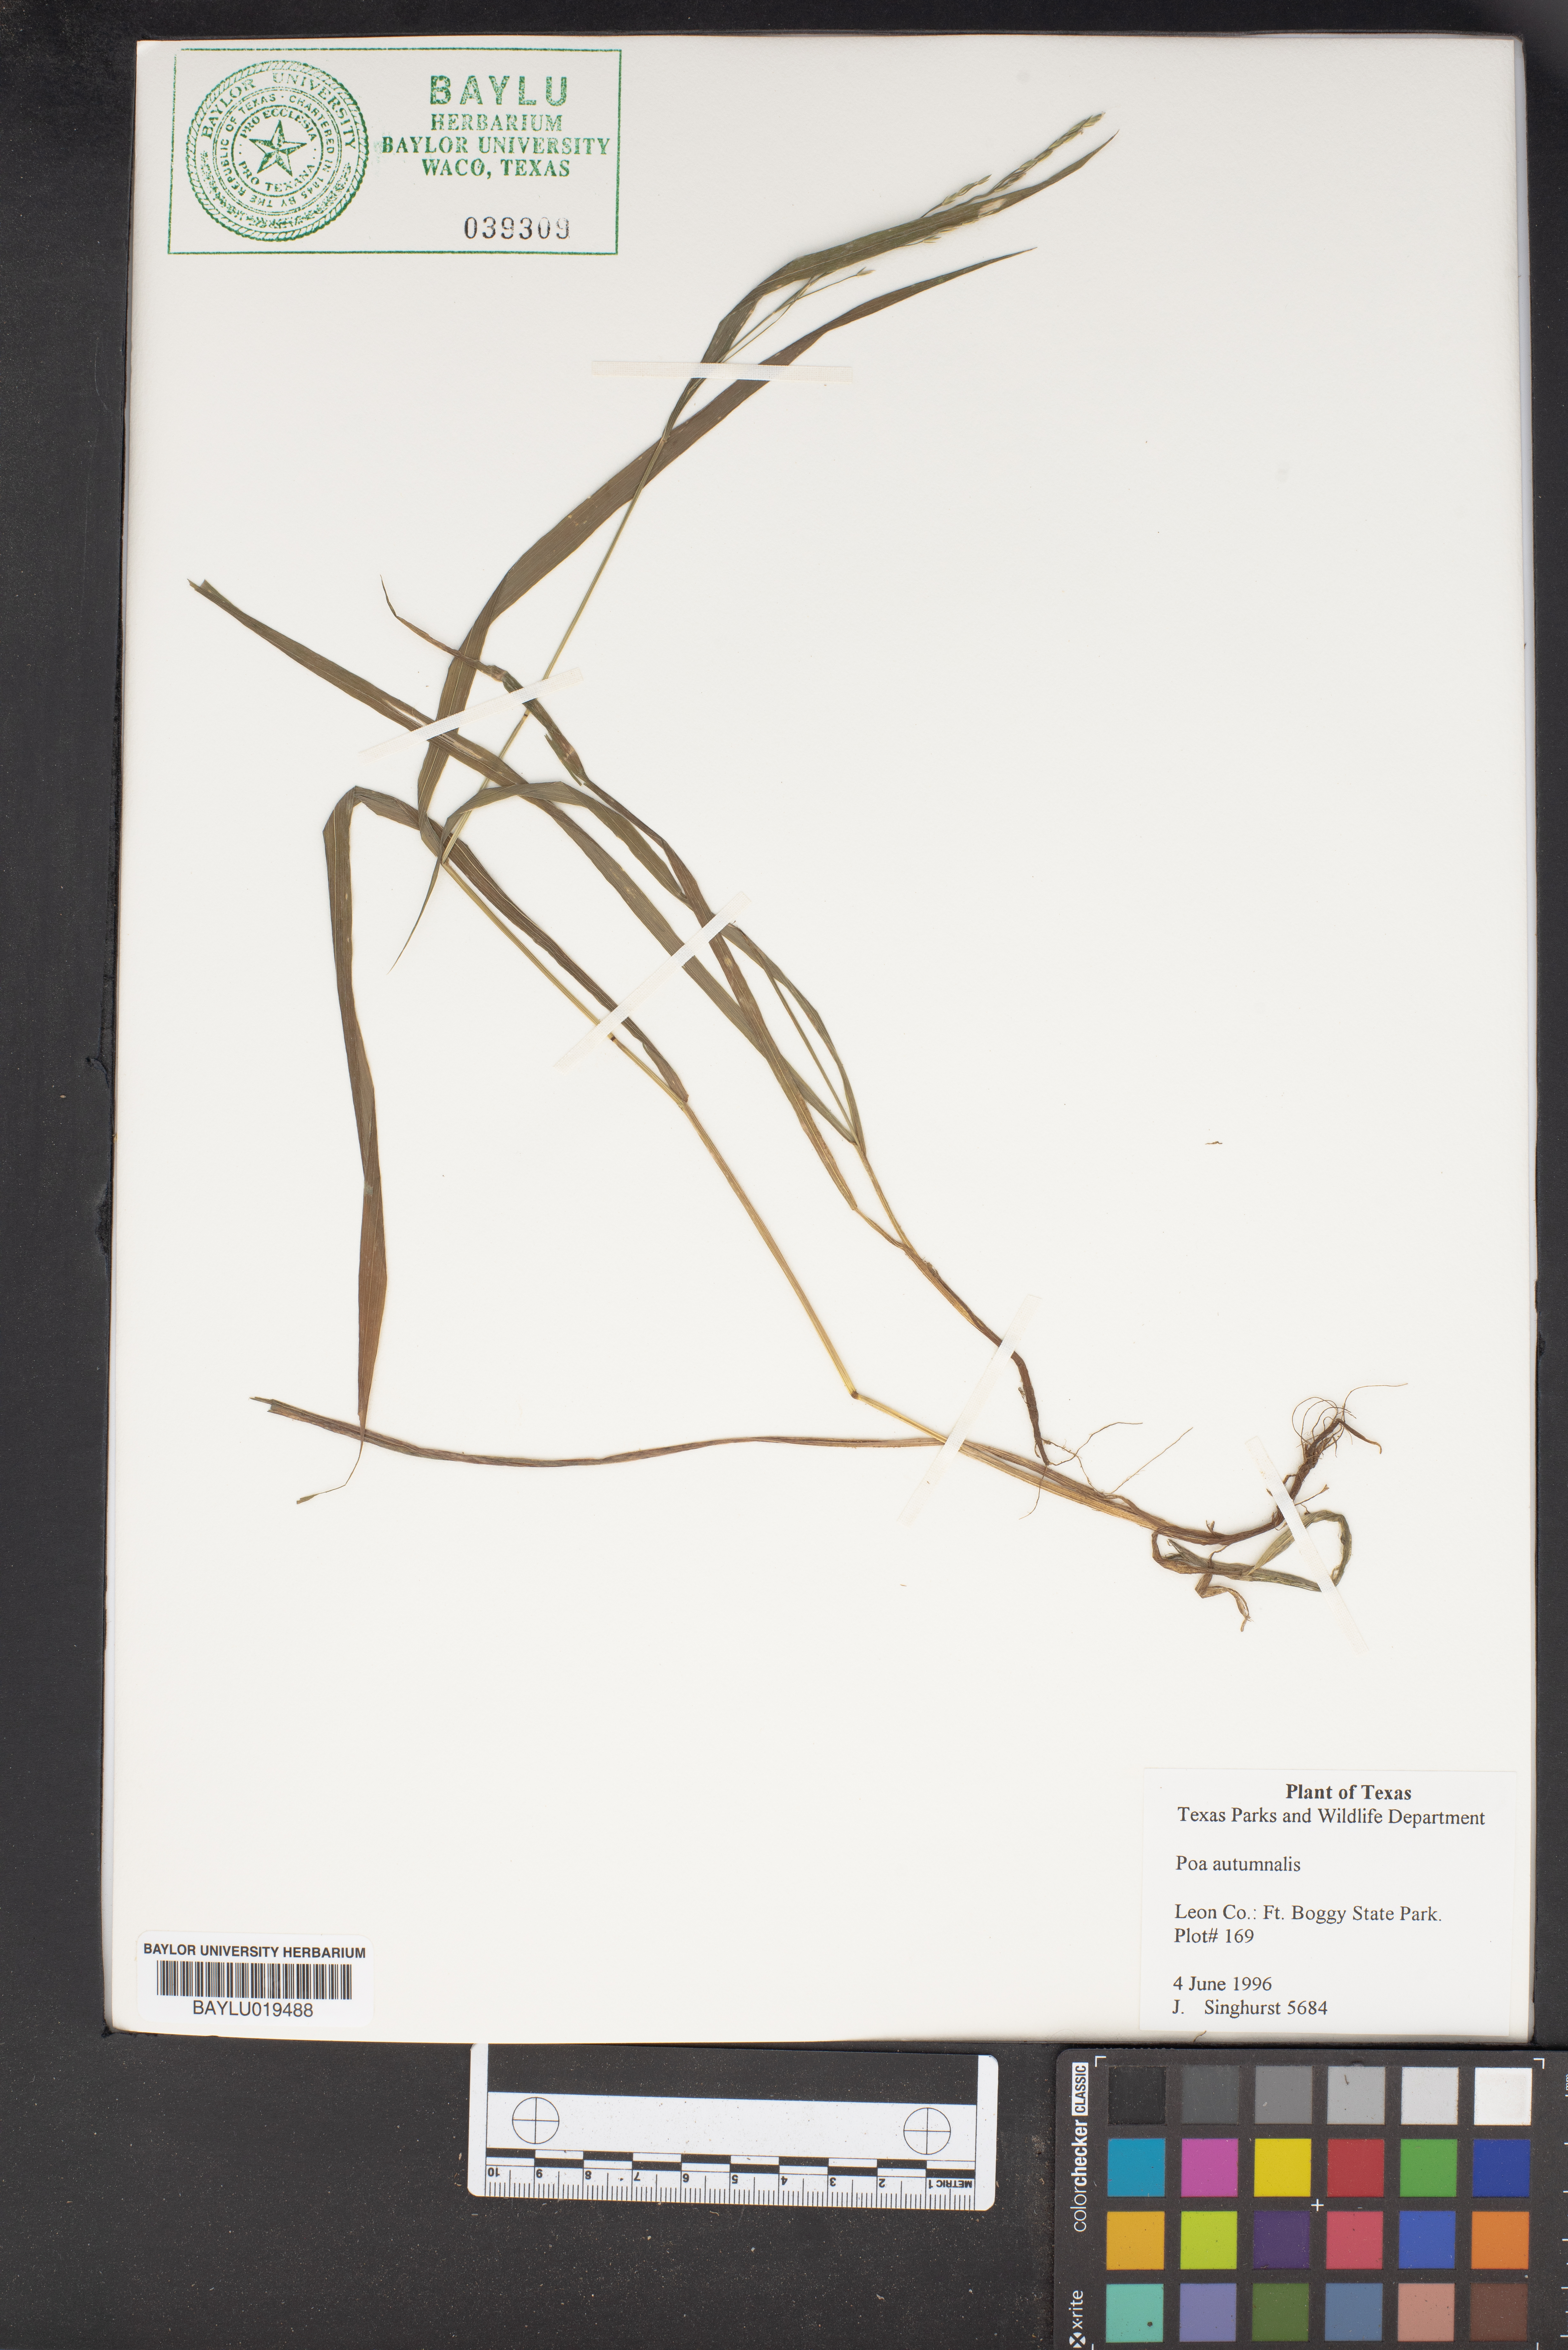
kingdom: Plantae
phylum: Tracheophyta
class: Liliopsida
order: Poales
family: Poaceae
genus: Poa
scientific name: Poa autumnalis
